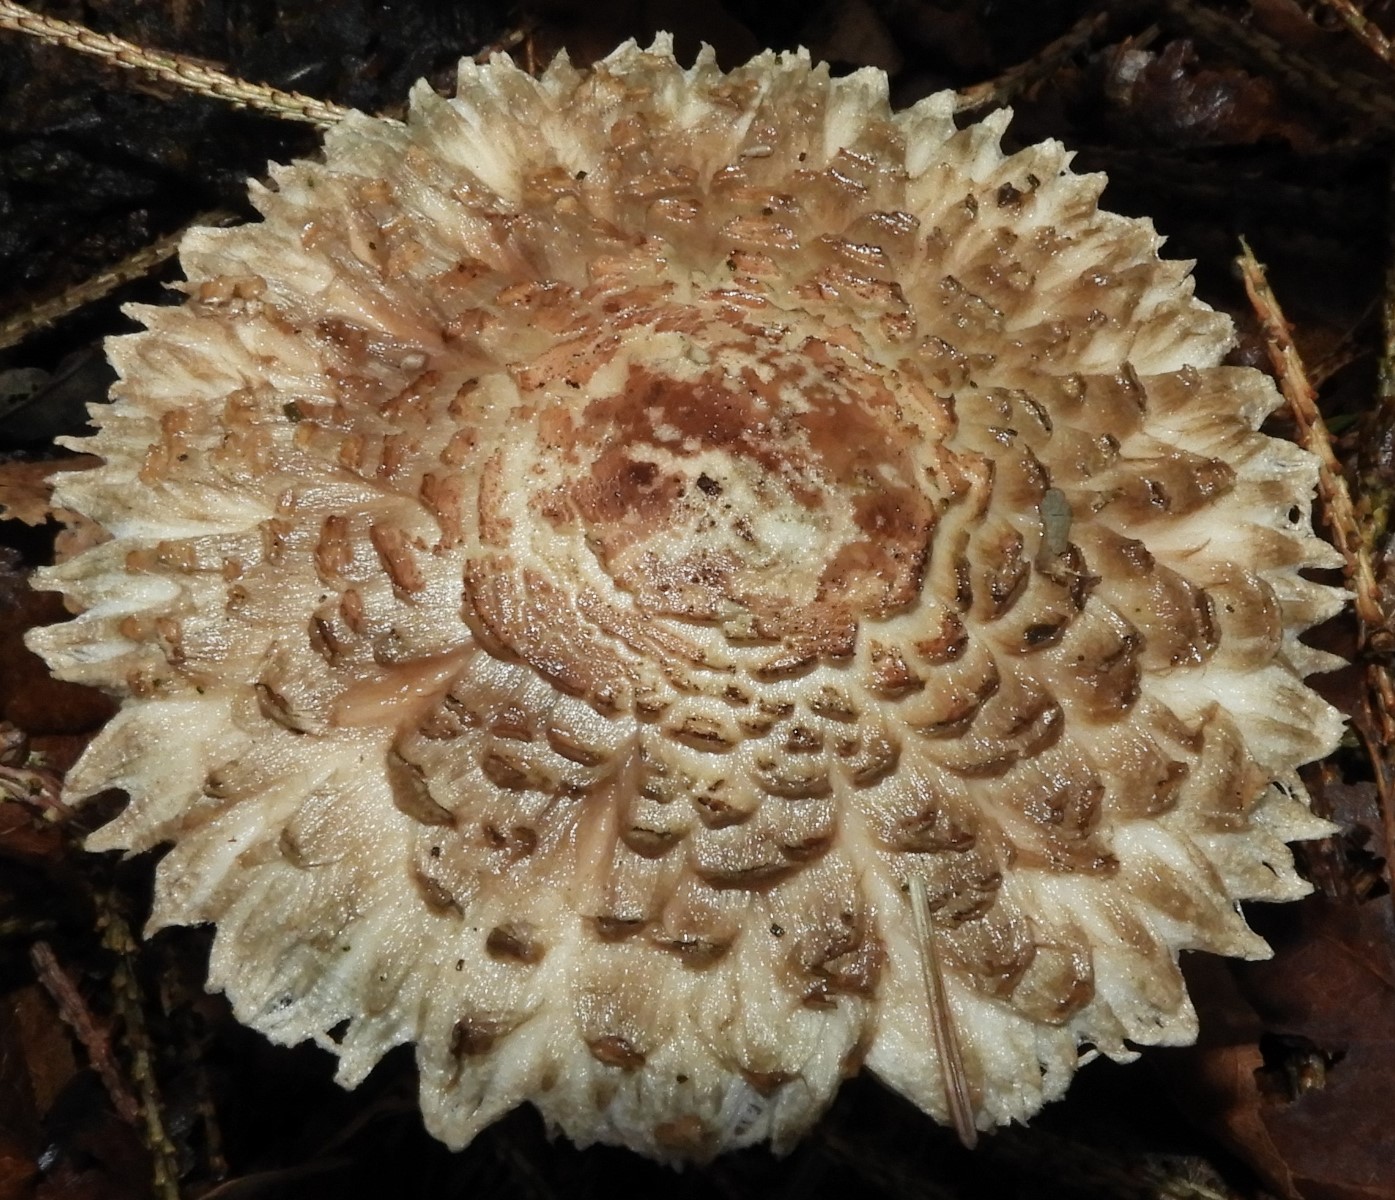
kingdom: Fungi
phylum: Basidiomycota
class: Agaricomycetes
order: Agaricales
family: Agaricaceae
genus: Chlorophyllum
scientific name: Chlorophyllum olivieri
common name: almindelig rabarberhat
